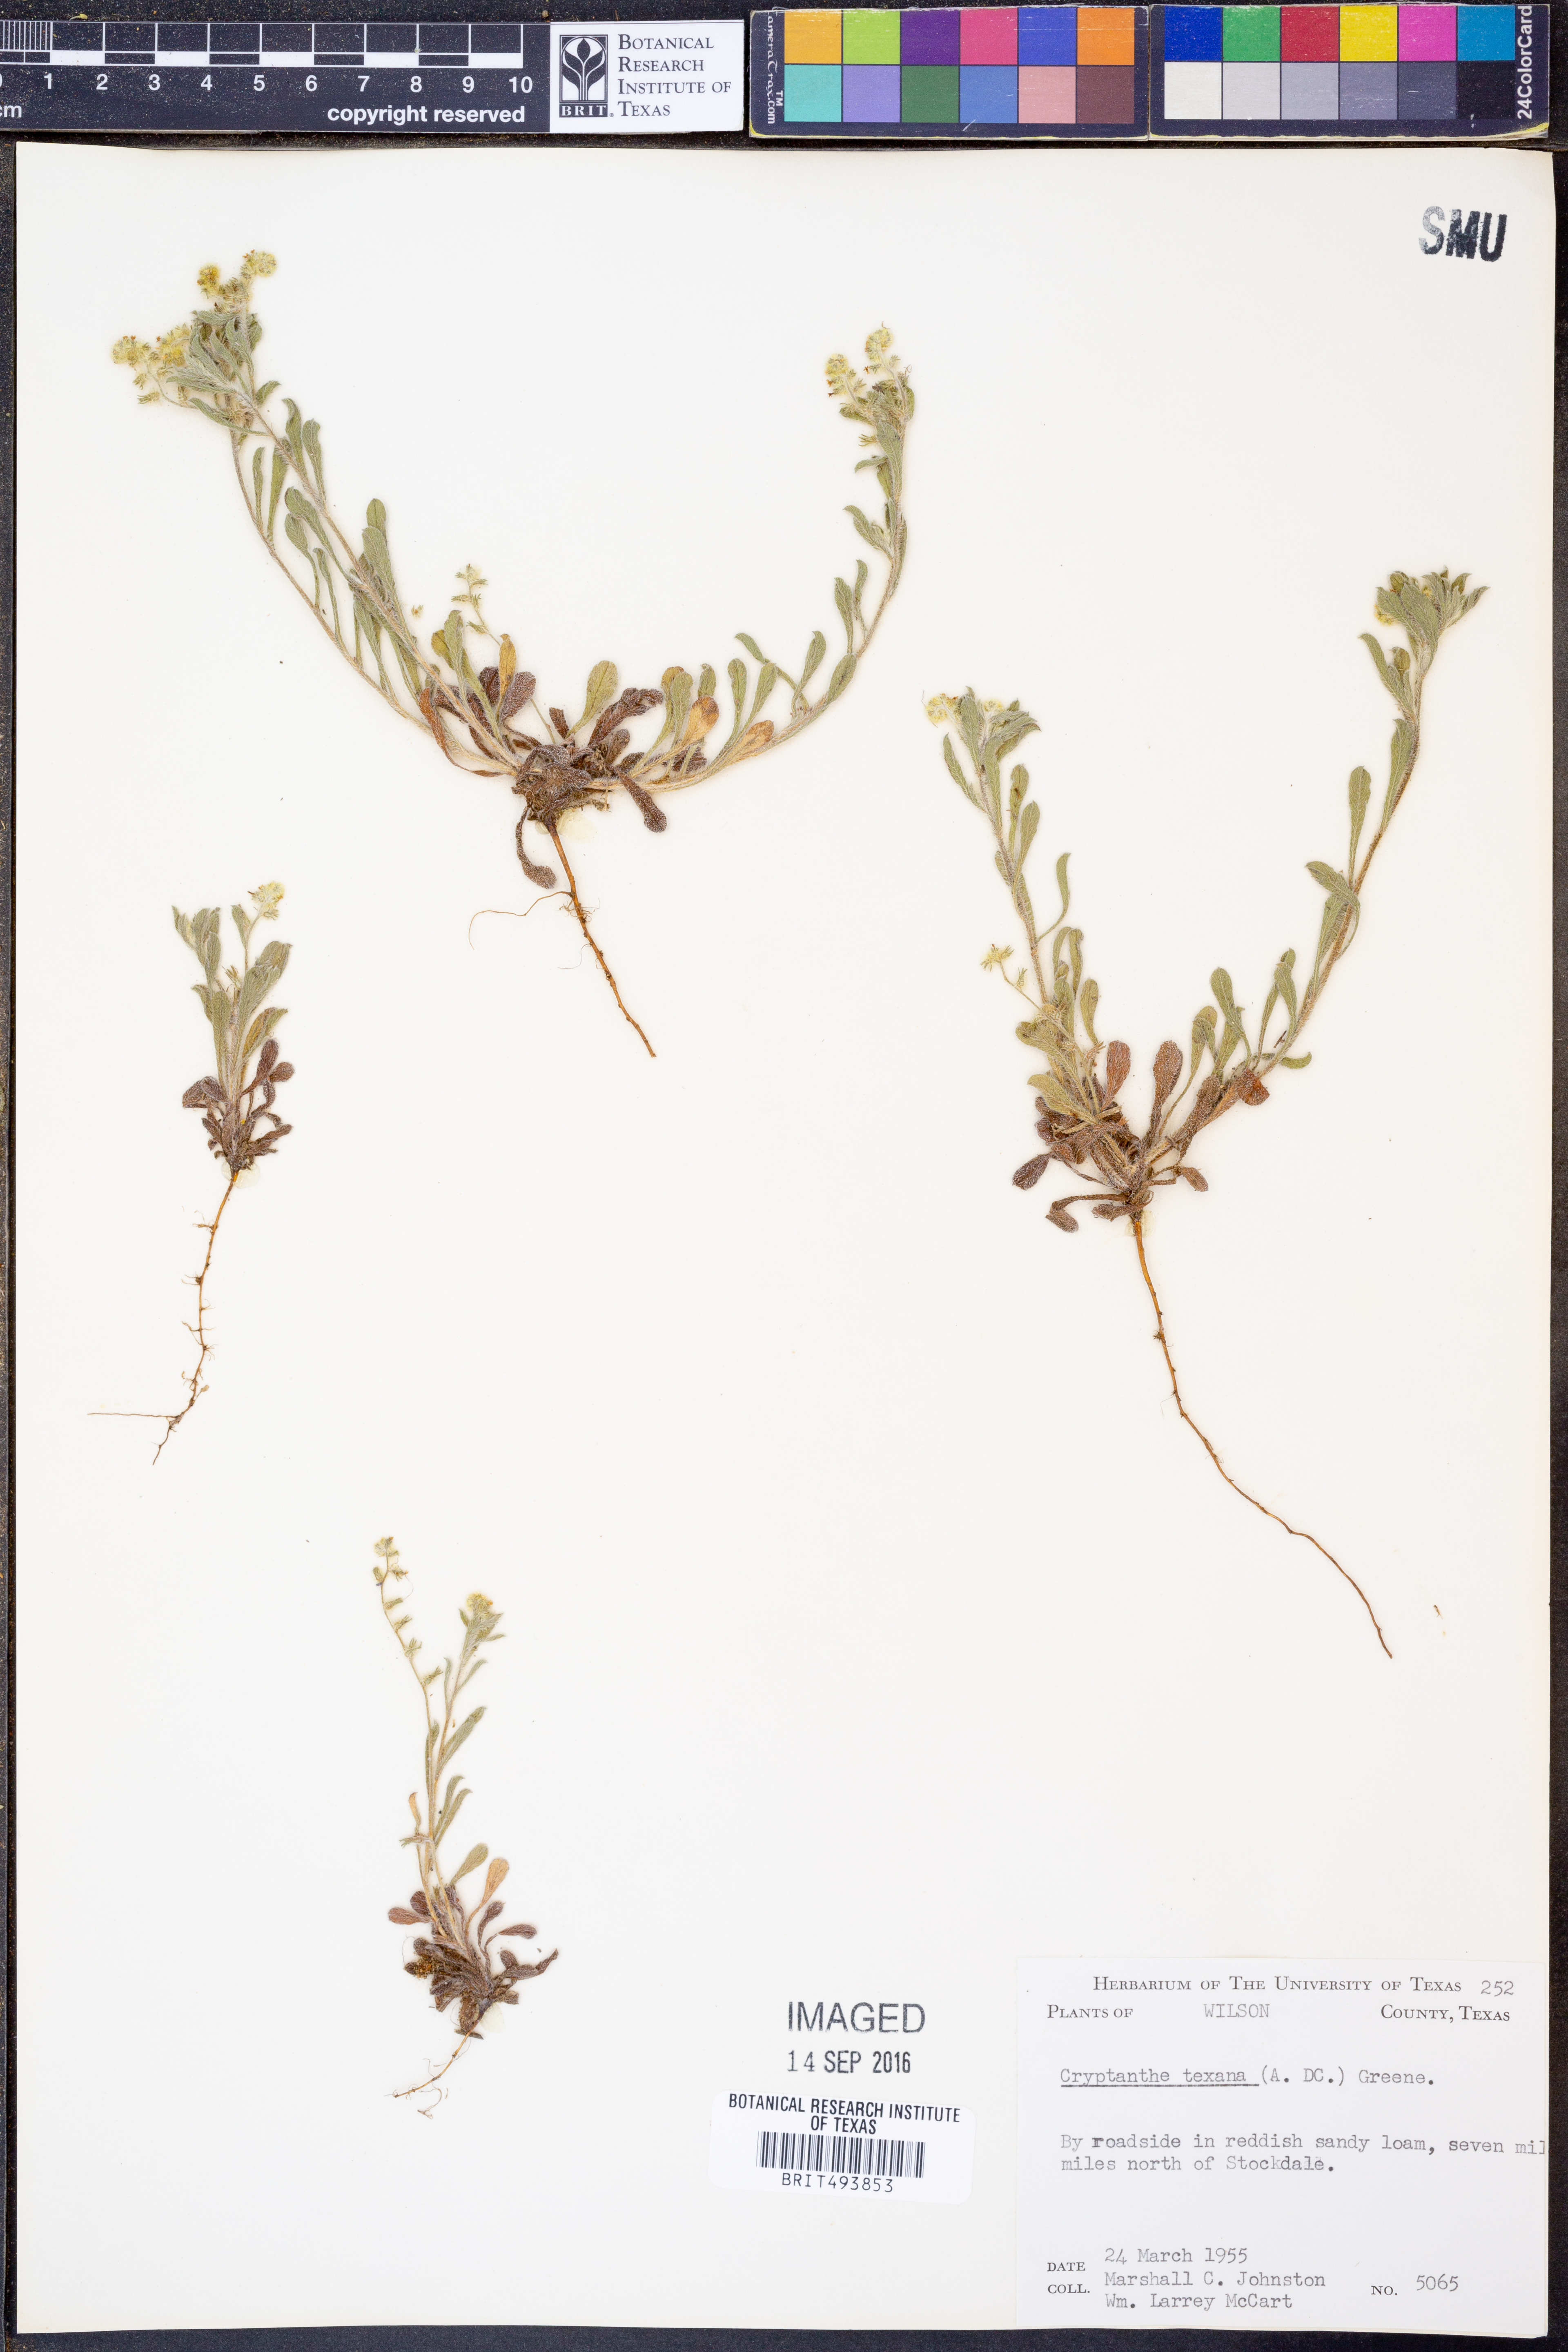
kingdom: Plantae
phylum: Tracheophyta
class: Magnoliopsida
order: Boraginales
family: Boraginaceae
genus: Cryptantha
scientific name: Cryptantha texana
